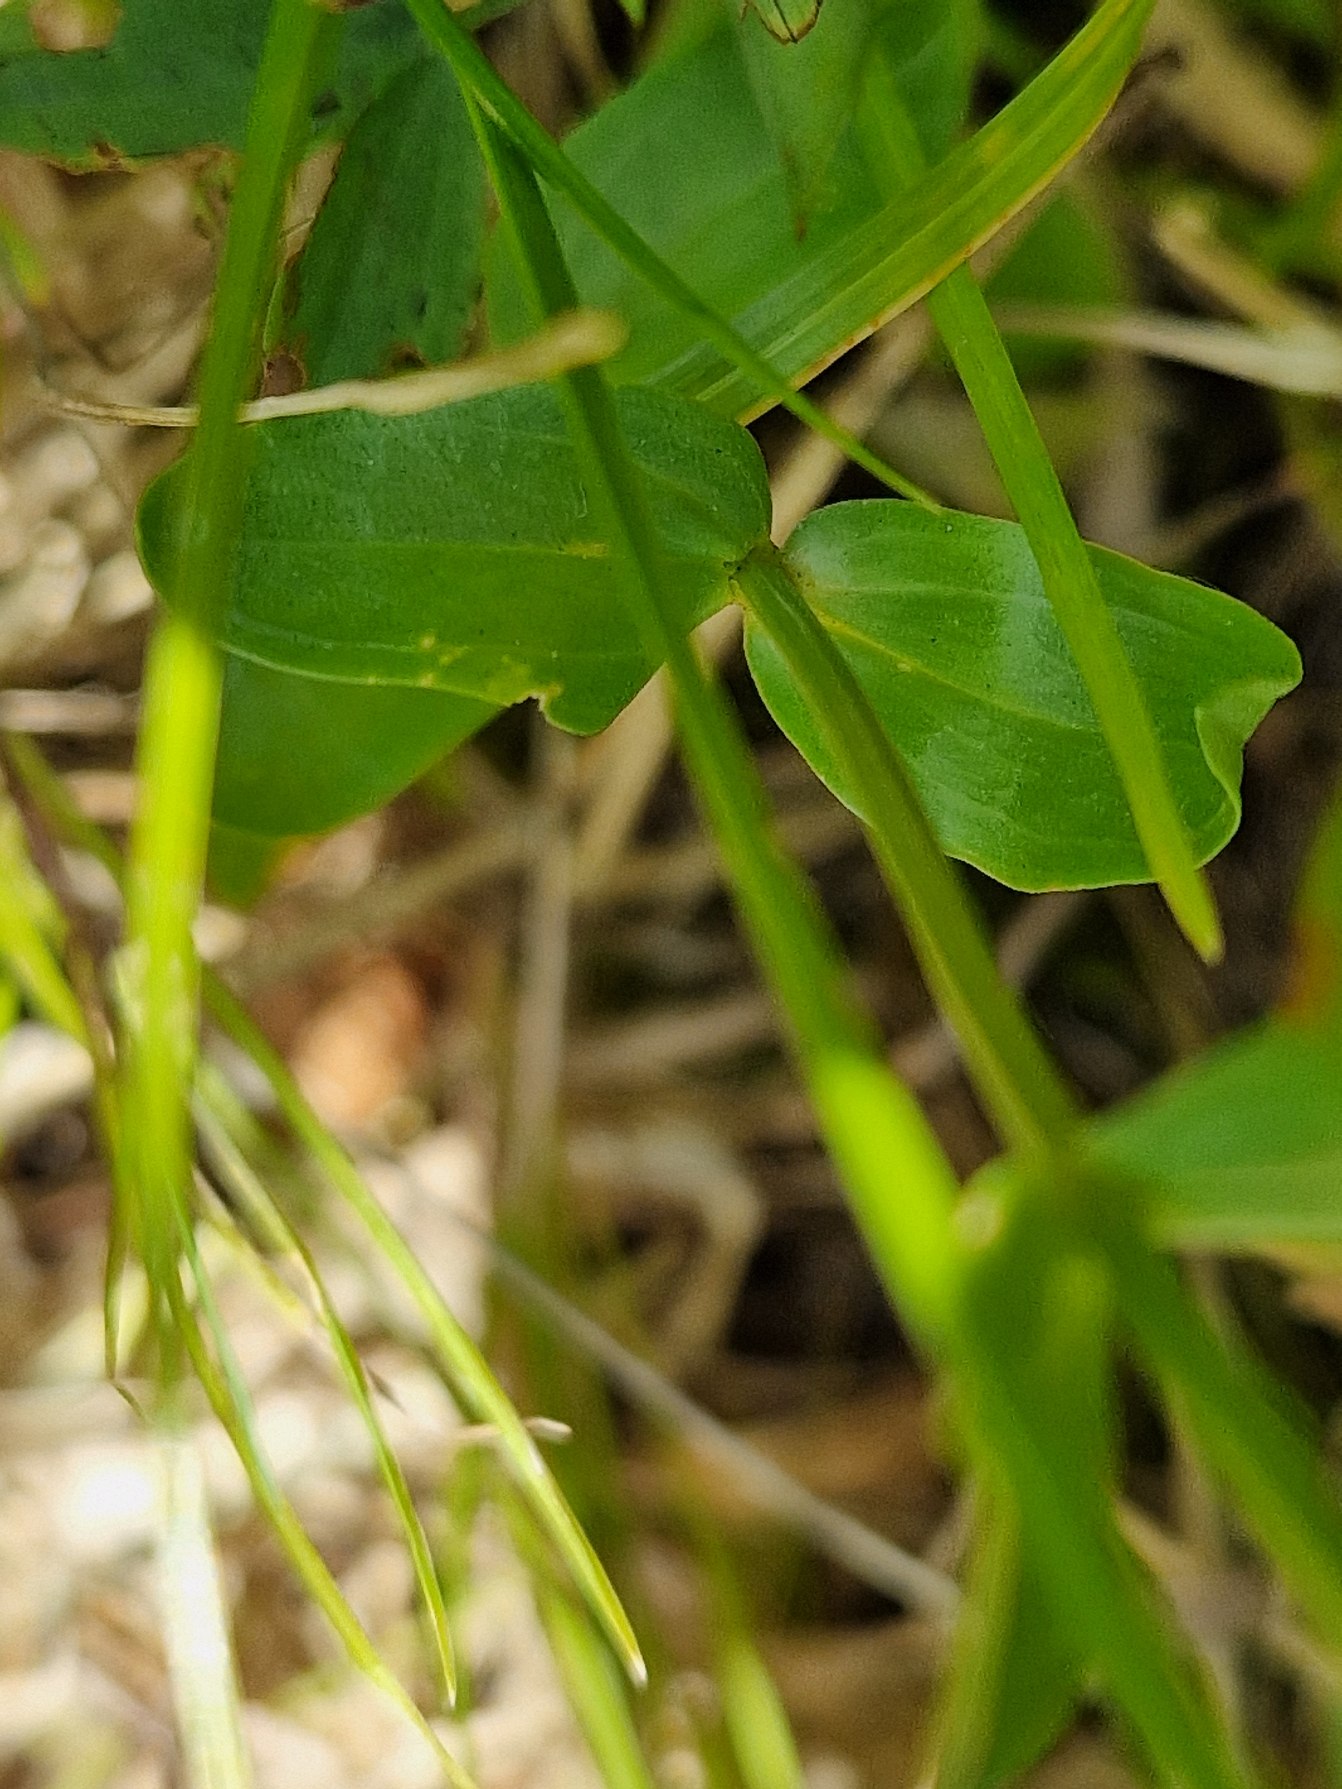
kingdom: Plantae
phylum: Tracheophyta
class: Magnoliopsida
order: Gentianales
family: Gentianaceae
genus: Centaurium
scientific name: Centaurium erythraea
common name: Mark-tusindgylden
